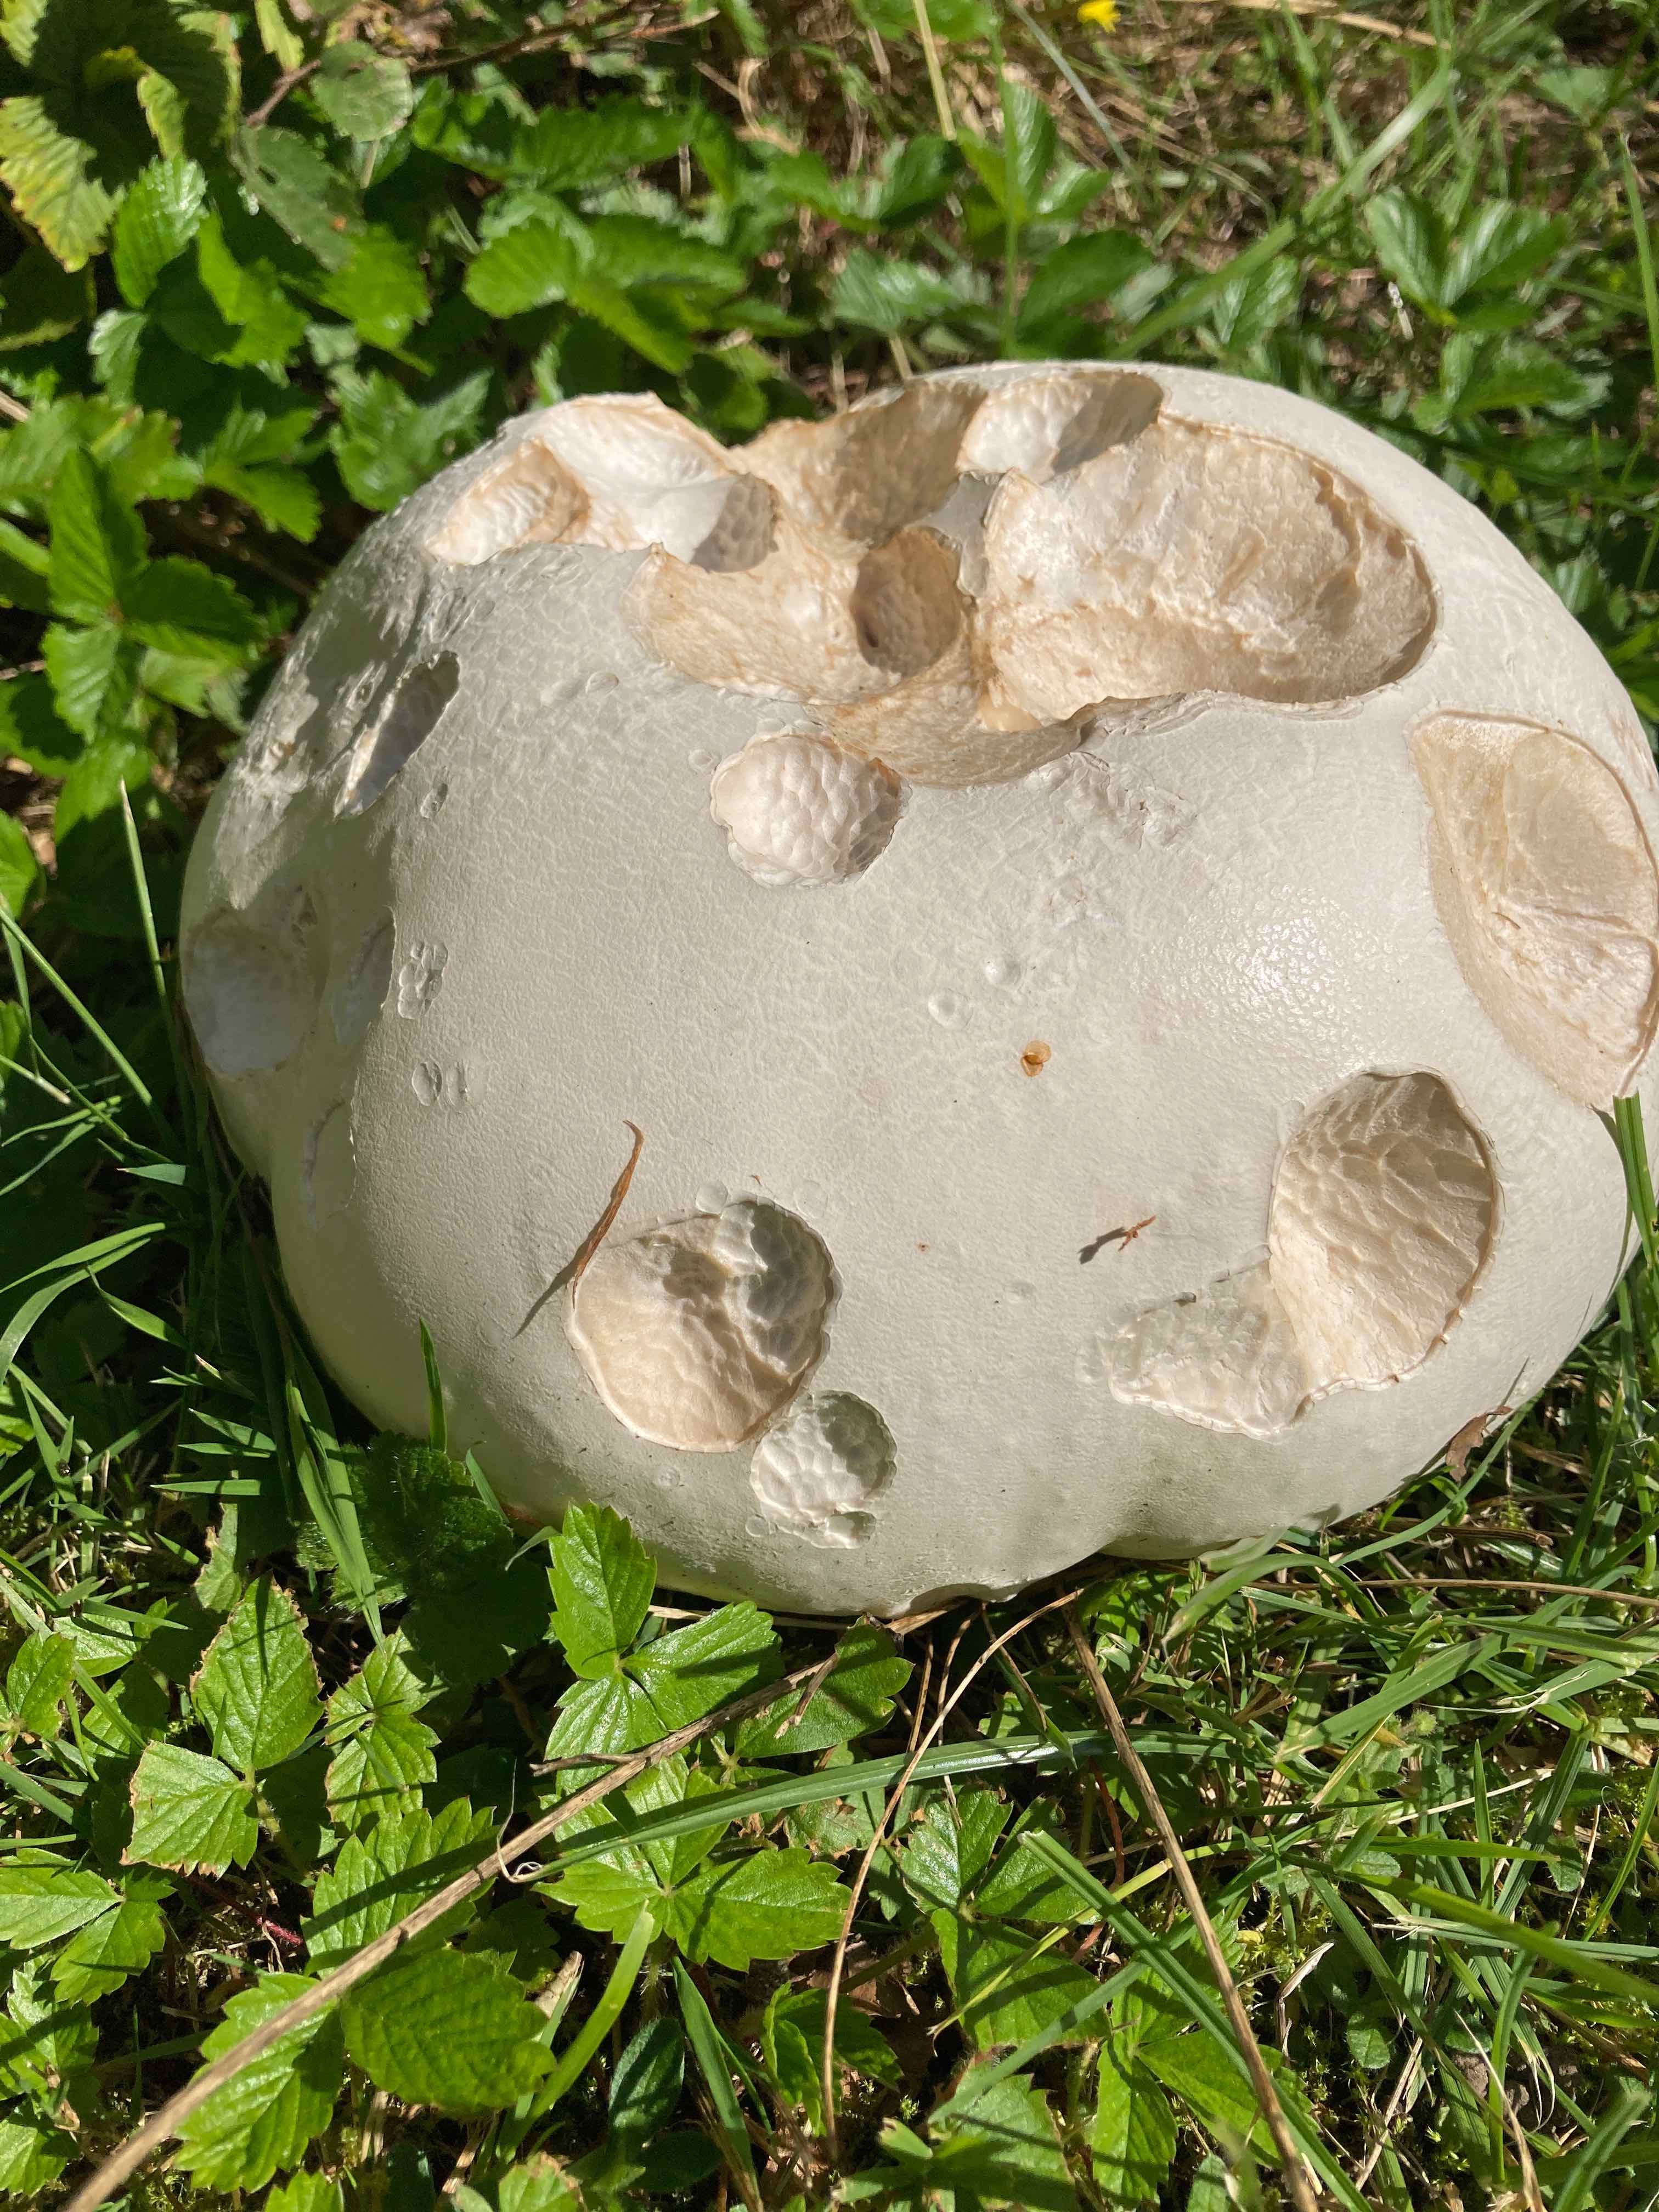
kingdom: Fungi
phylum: Basidiomycota
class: Agaricomycetes
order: Agaricales
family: Lycoperdaceae
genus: Calvatia
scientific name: Calvatia gigantea
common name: kæmpestøvbold
